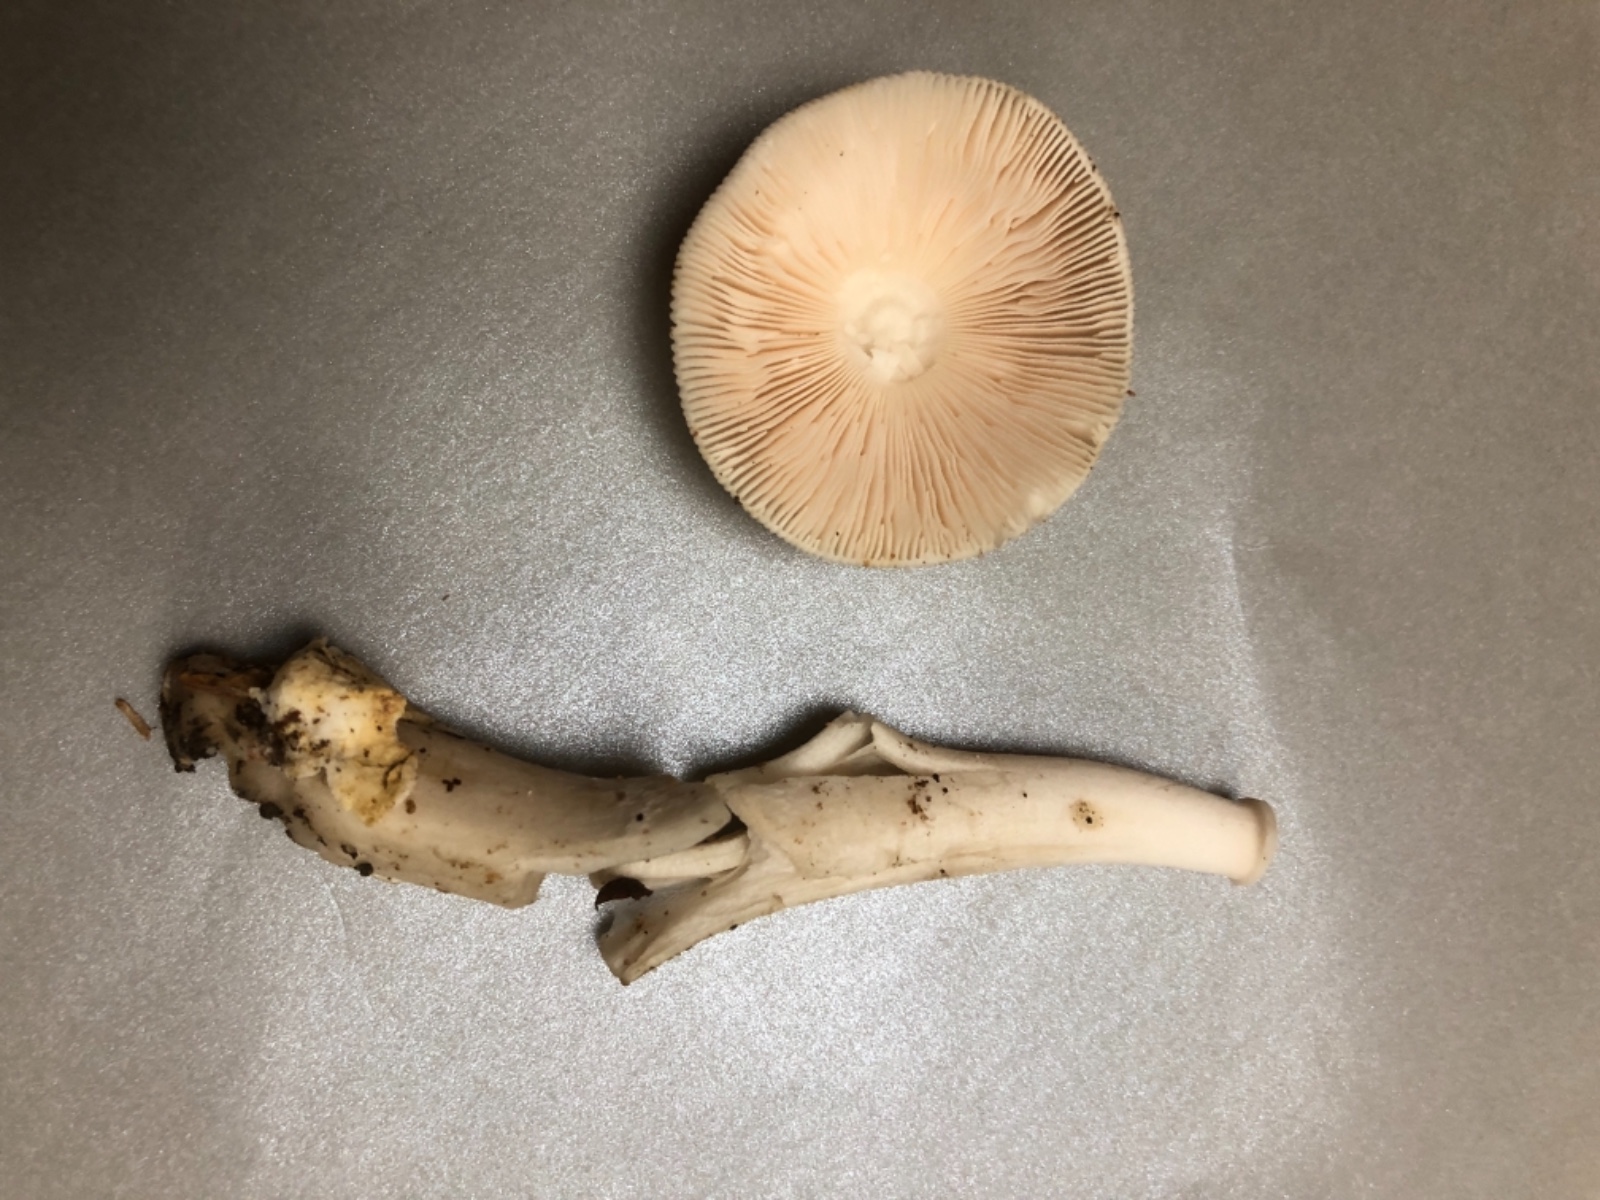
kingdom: Fungi
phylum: Basidiomycota
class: Agaricomycetes
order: Agaricales
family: Amanitaceae
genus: Amanita
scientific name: Amanita
